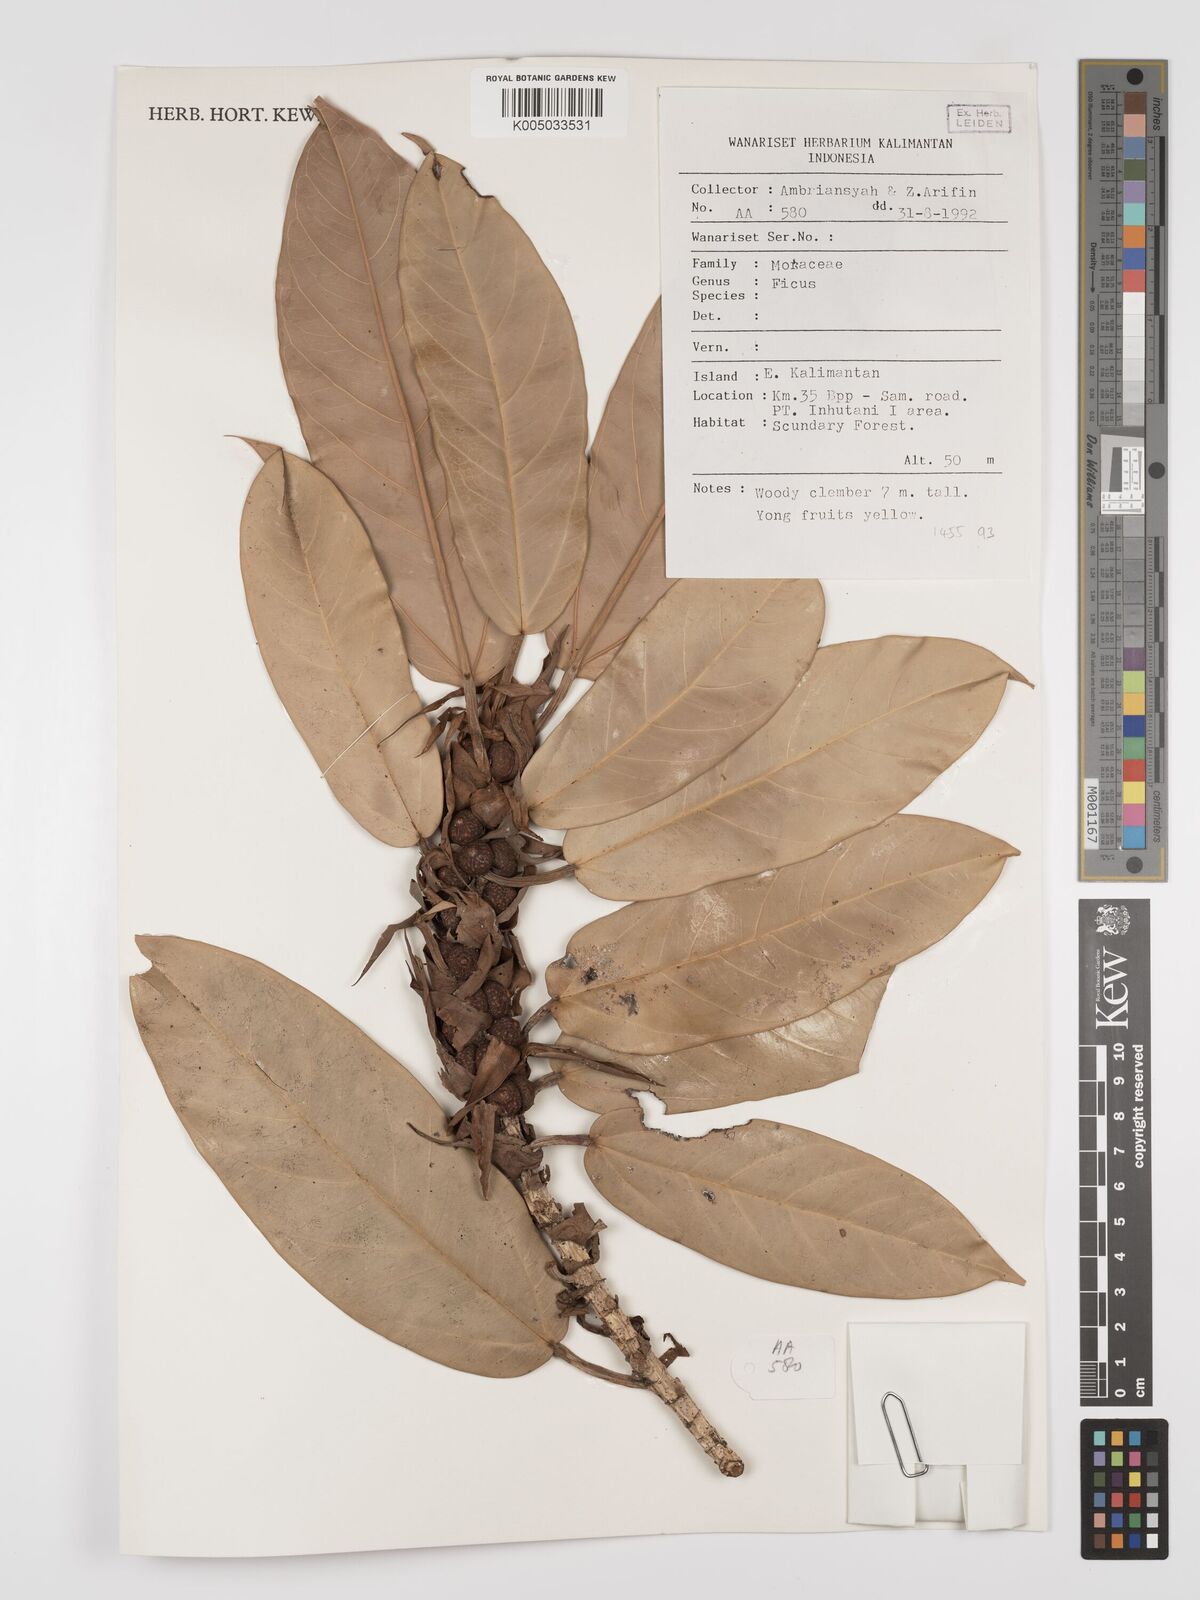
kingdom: Plantae
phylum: Tracheophyta
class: Magnoliopsida
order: Rosales
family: Moraceae
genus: Ficus
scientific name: Ficus
